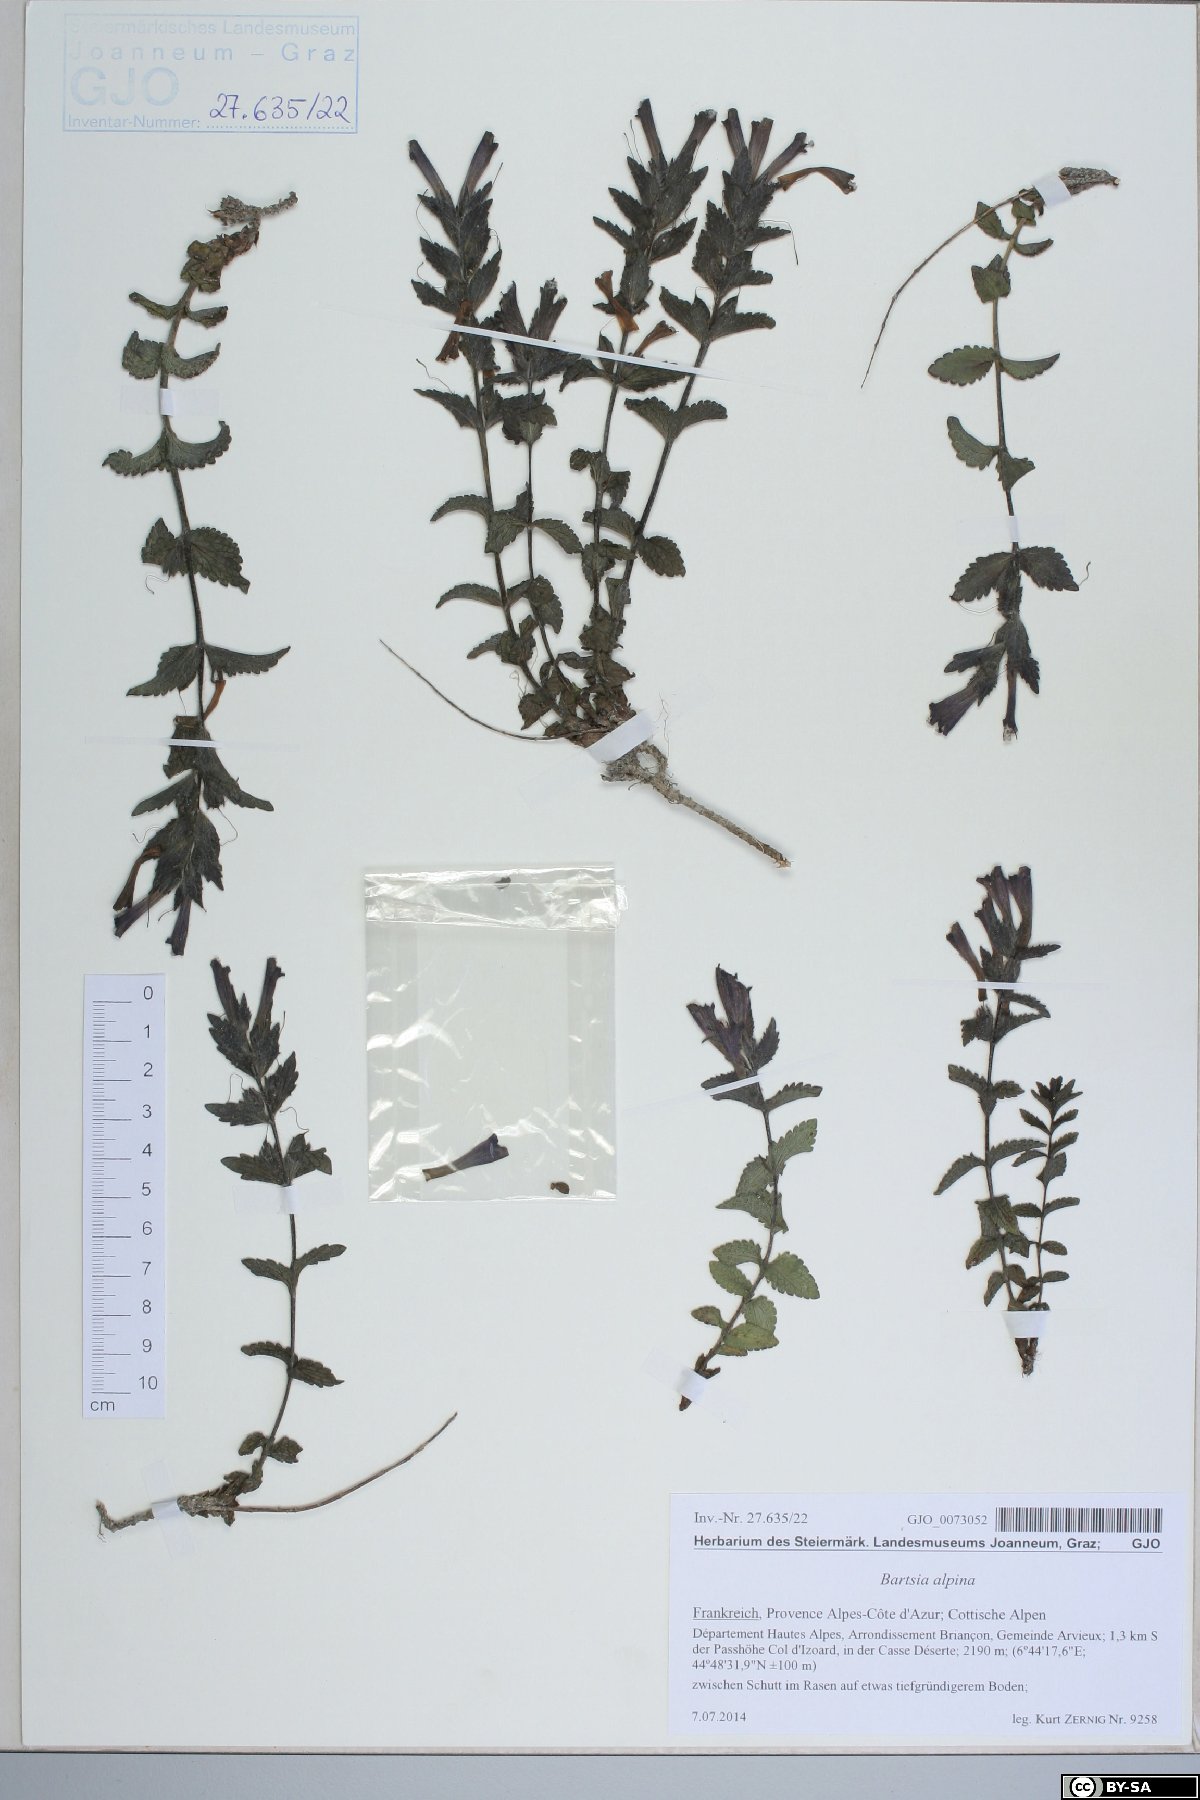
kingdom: Plantae
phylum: Tracheophyta
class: Magnoliopsida
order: Lamiales
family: Orobanchaceae
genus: Bartsia
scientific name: Bartsia alpina
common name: Alpine bartsia
